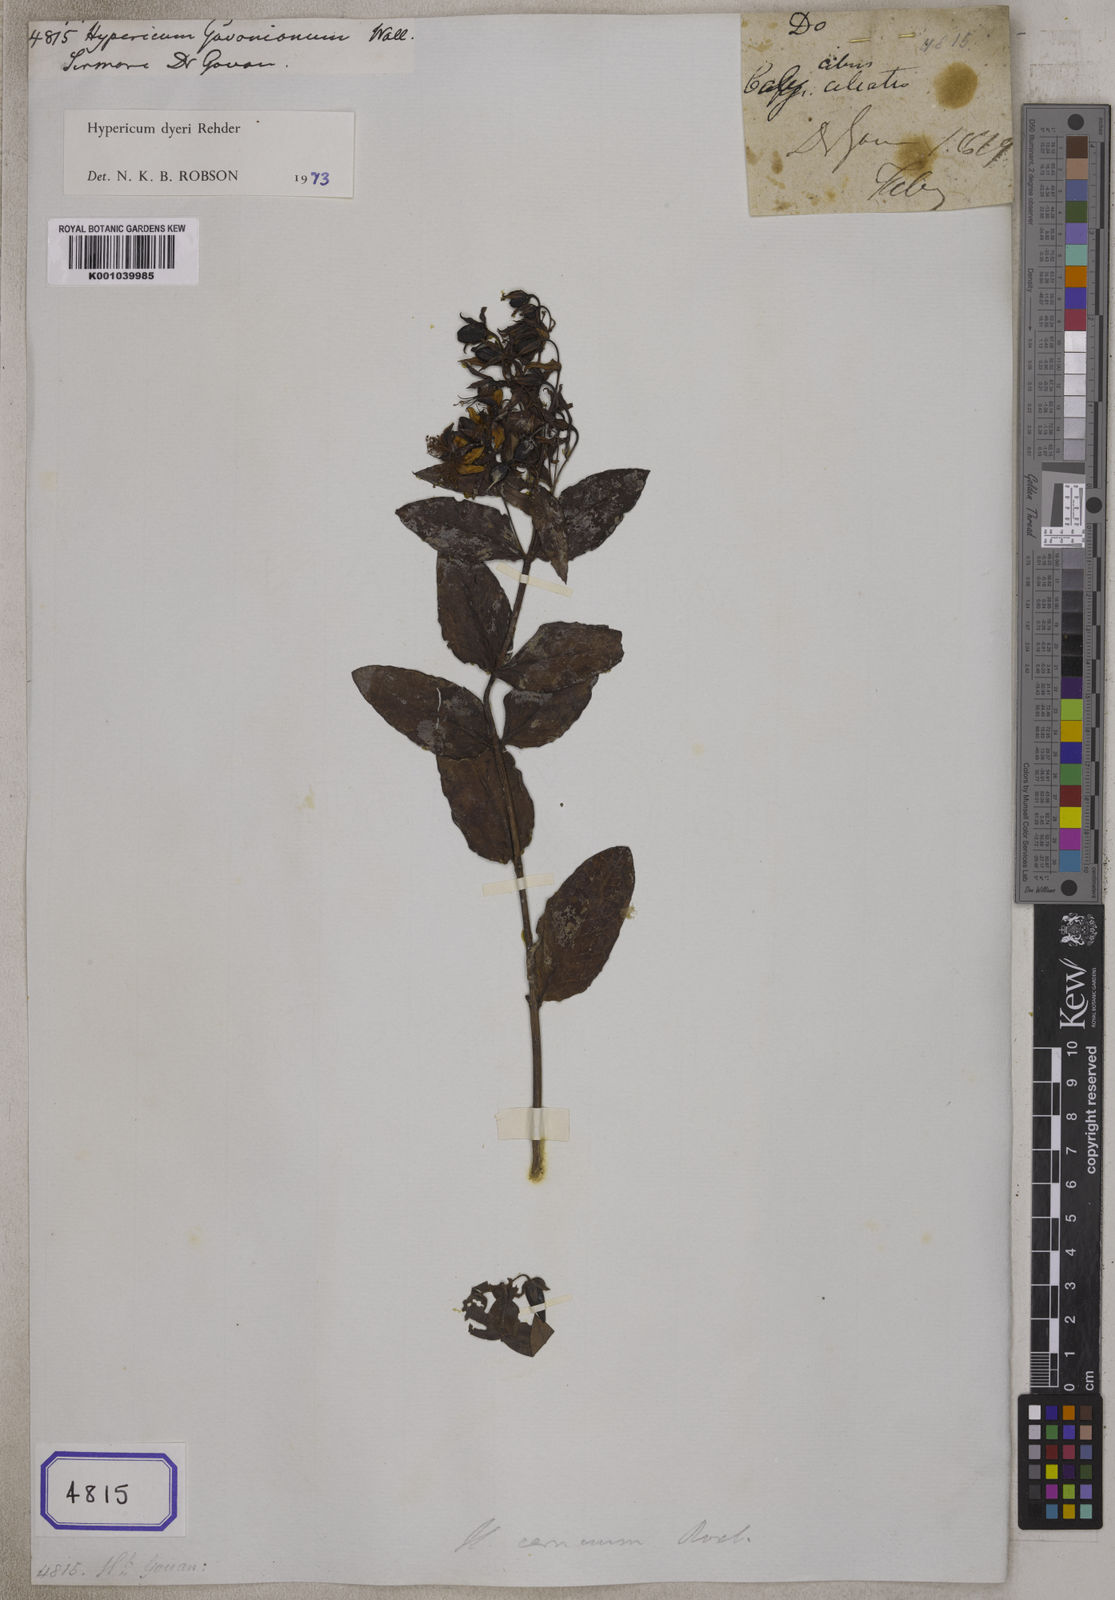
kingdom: Plantae
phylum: Tracheophyta
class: Magnoliopsida
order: Malpighiales
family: Hypericaceae
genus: Hypericum
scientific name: Hypericum dyeri
